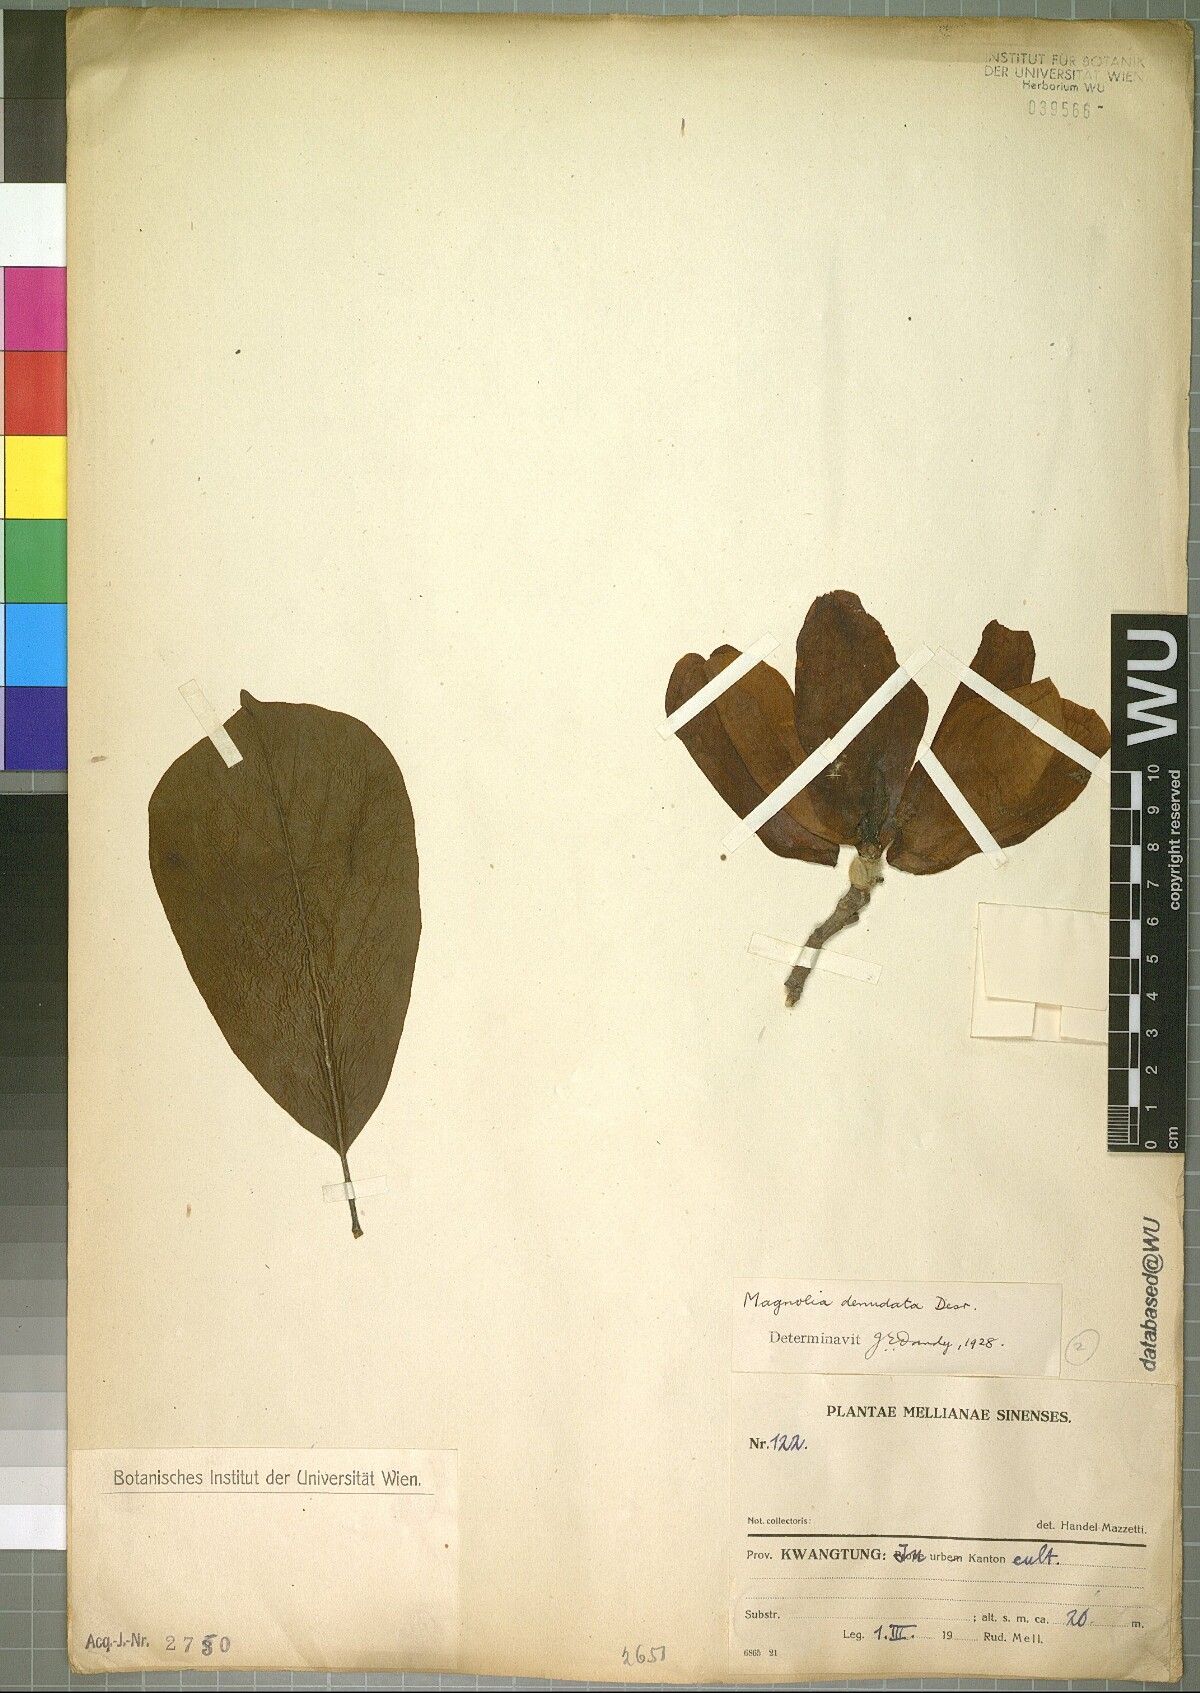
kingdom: Plantae
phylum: Tracheophyta
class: Magnoliopsida
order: Magnoliales
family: Magnoliaceae
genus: Magnolia
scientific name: Magnolia denudata
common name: Lilytree
